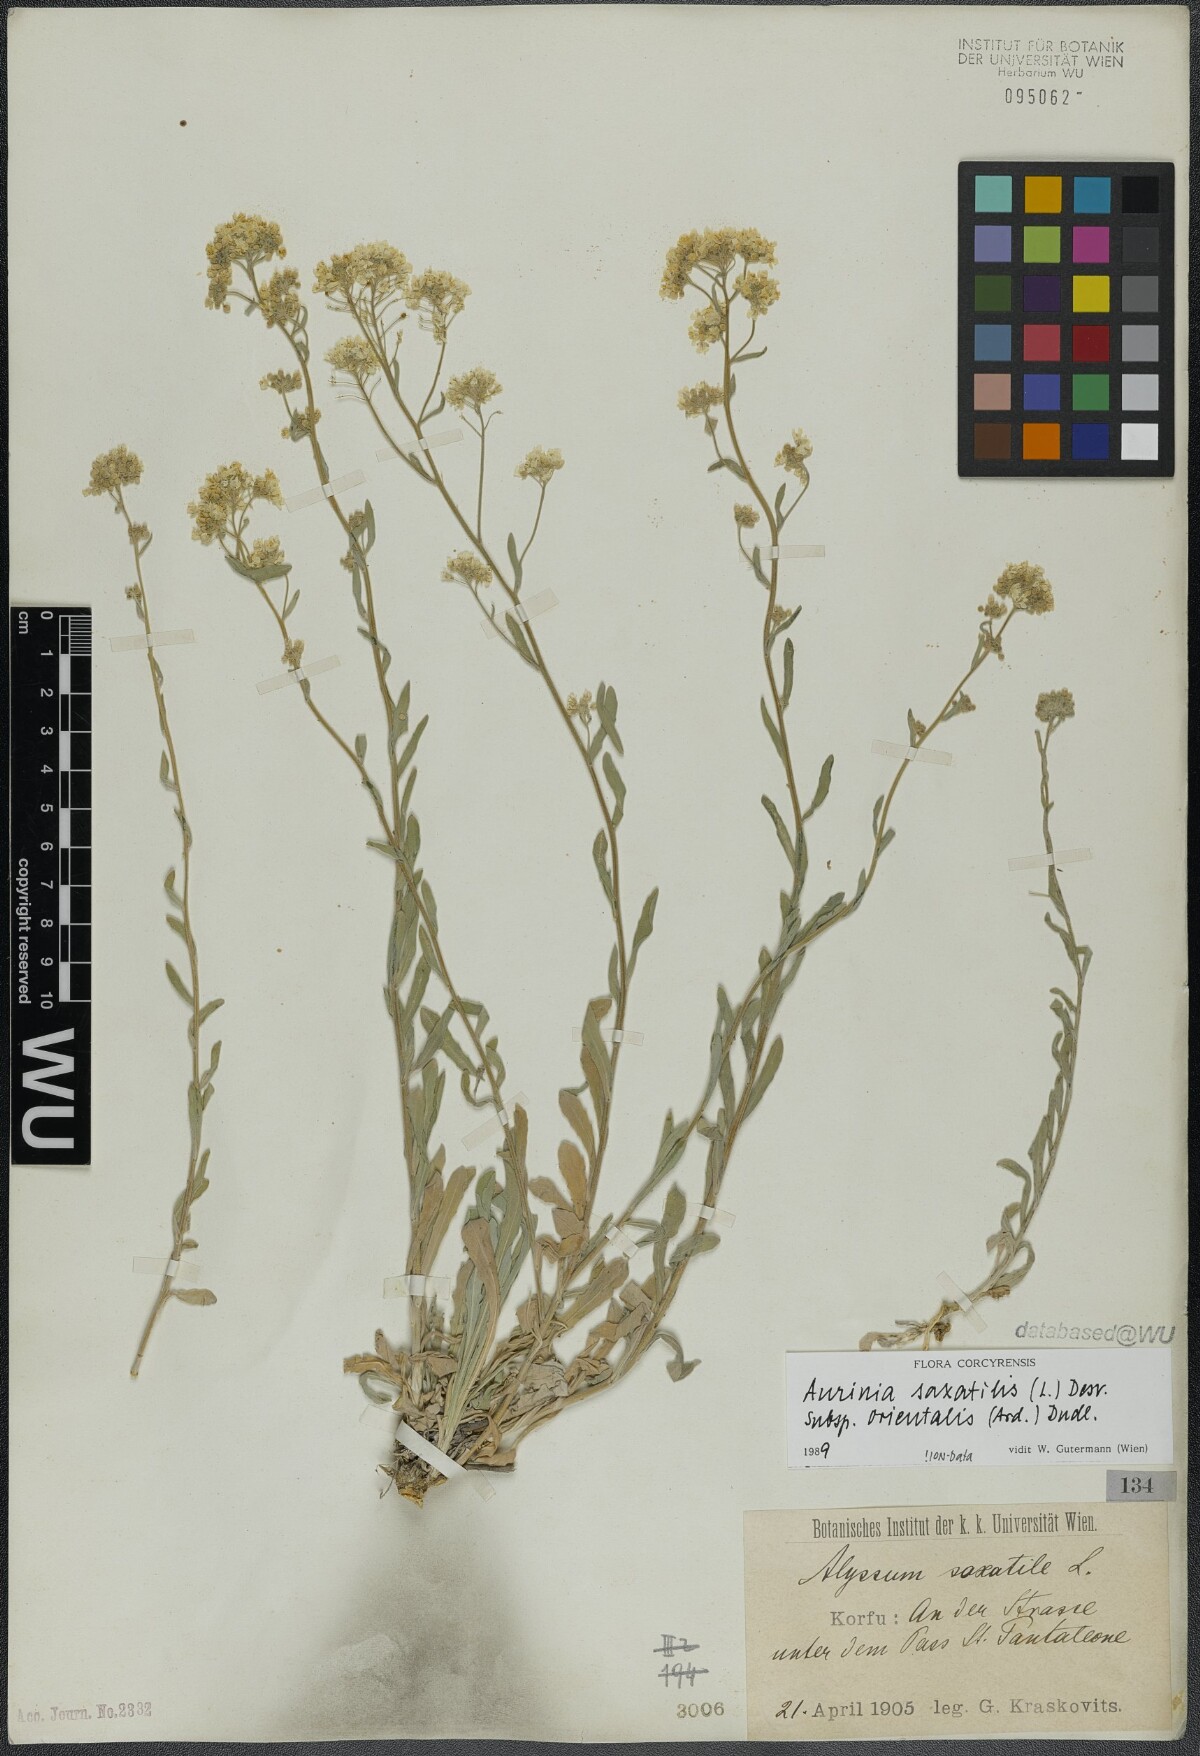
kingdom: Plantae
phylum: Tracheophyta
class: Magnoliopsida
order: Brassicales
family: Brassicaceae
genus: Aurinia
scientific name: Aurinia saxatilis
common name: Golden-tuft alyssum
